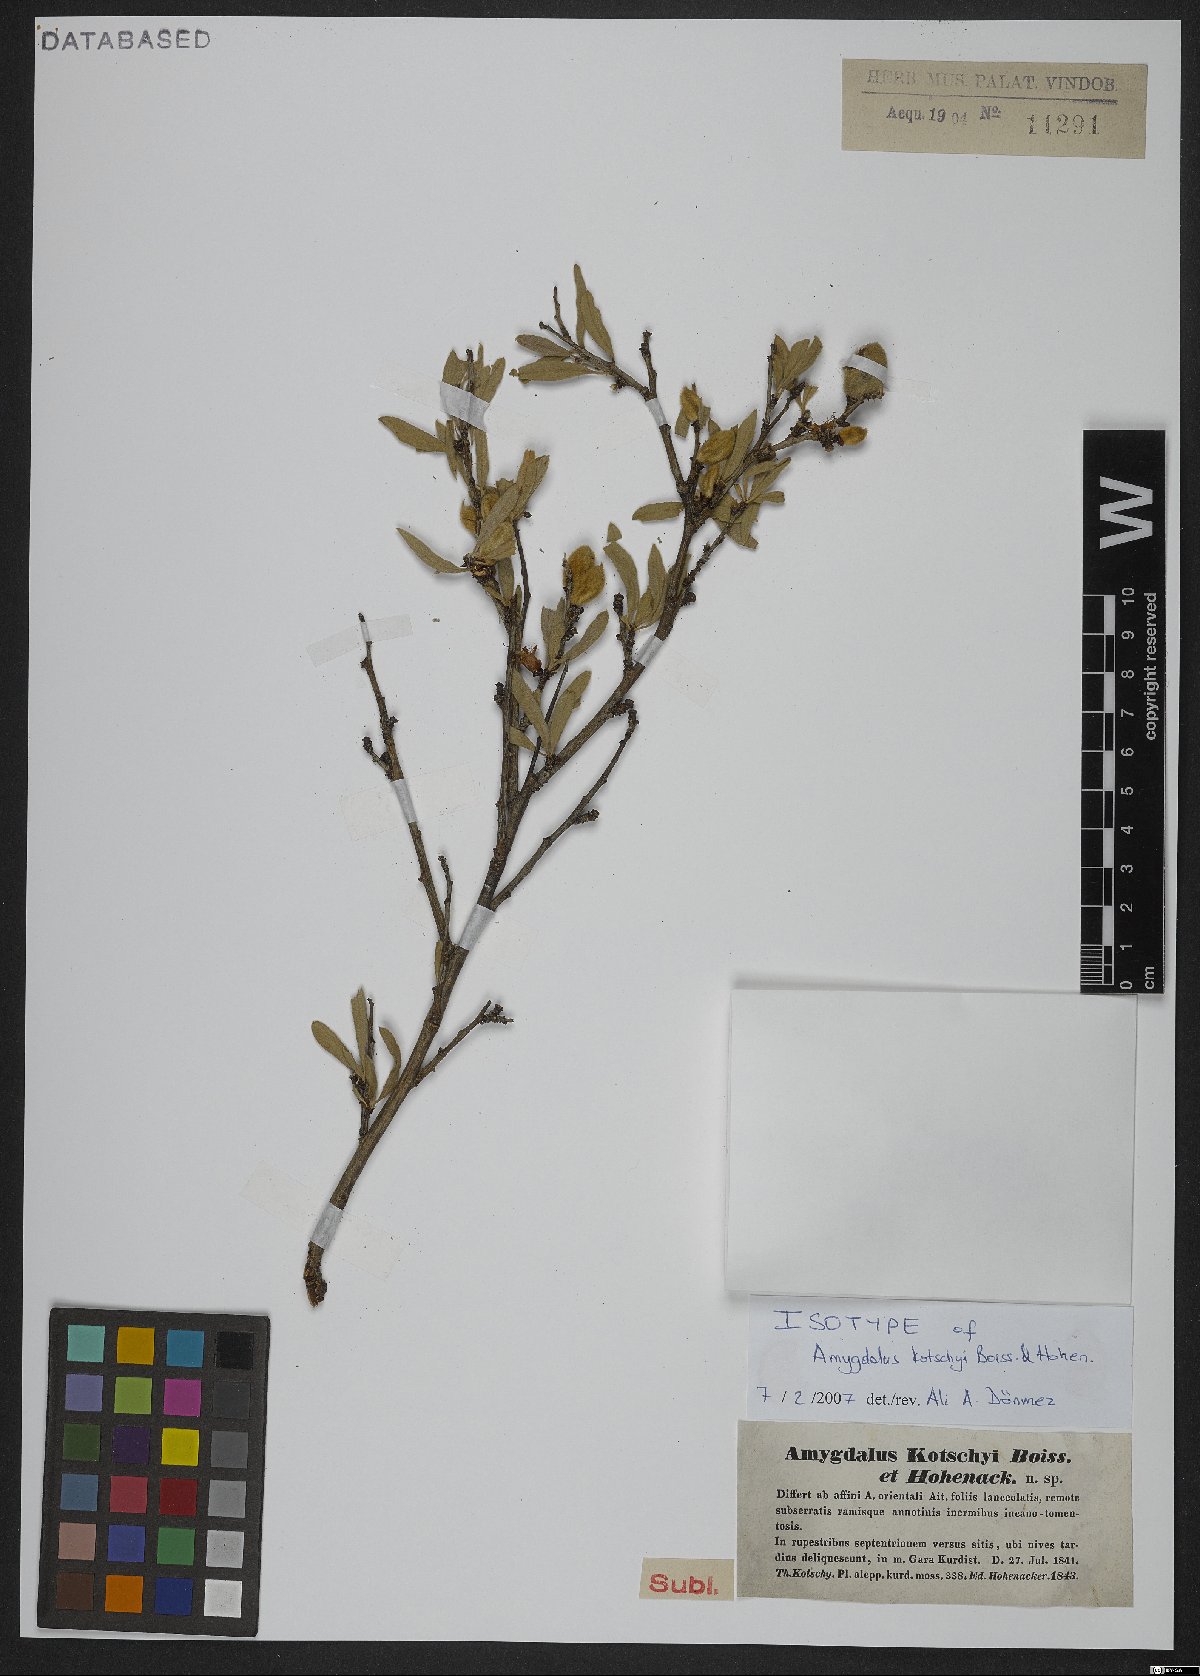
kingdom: Plantae
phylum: Tracheophyta
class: Magnoliopsida
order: Rosales
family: Rosaceae
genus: Prunus
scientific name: Prunus kotschyi
